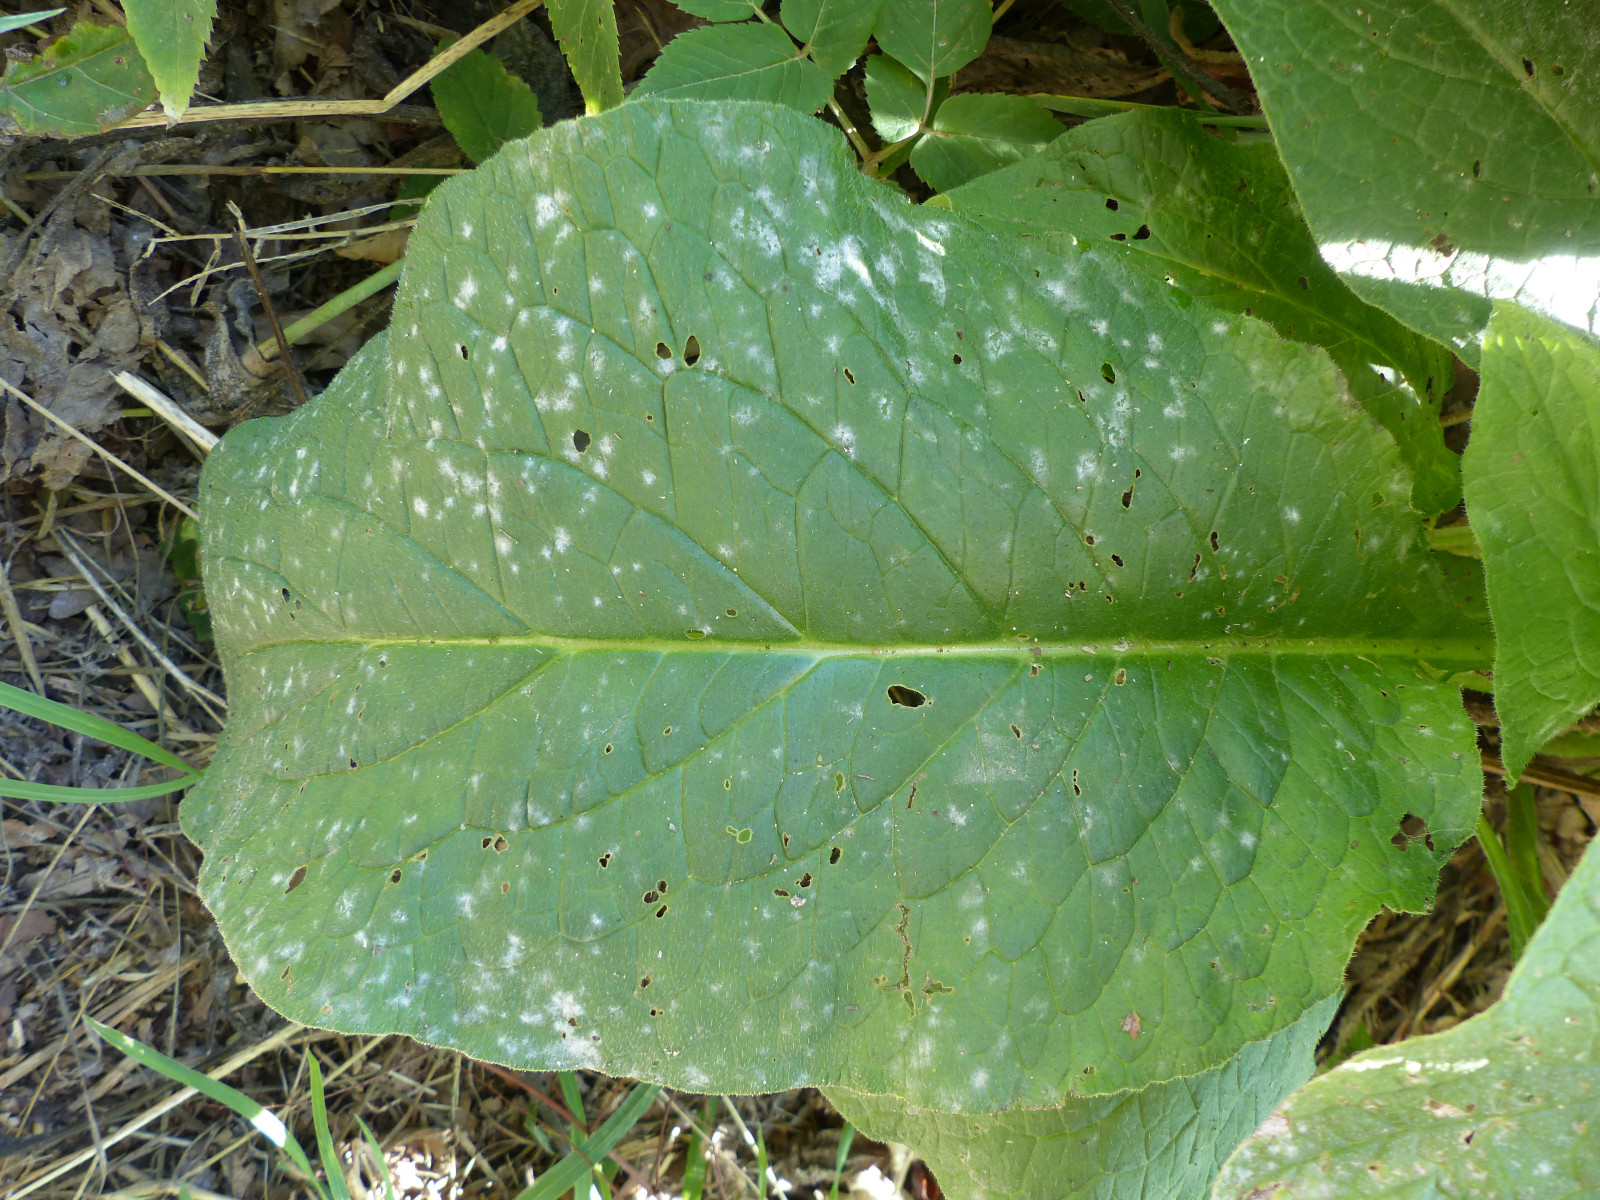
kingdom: Fungi
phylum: Ascomycota
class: Leotiomycetes
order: Helotiales
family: Erysiphaceae
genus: Golovinomyces
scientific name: Golovinomyces asperifoliorum
